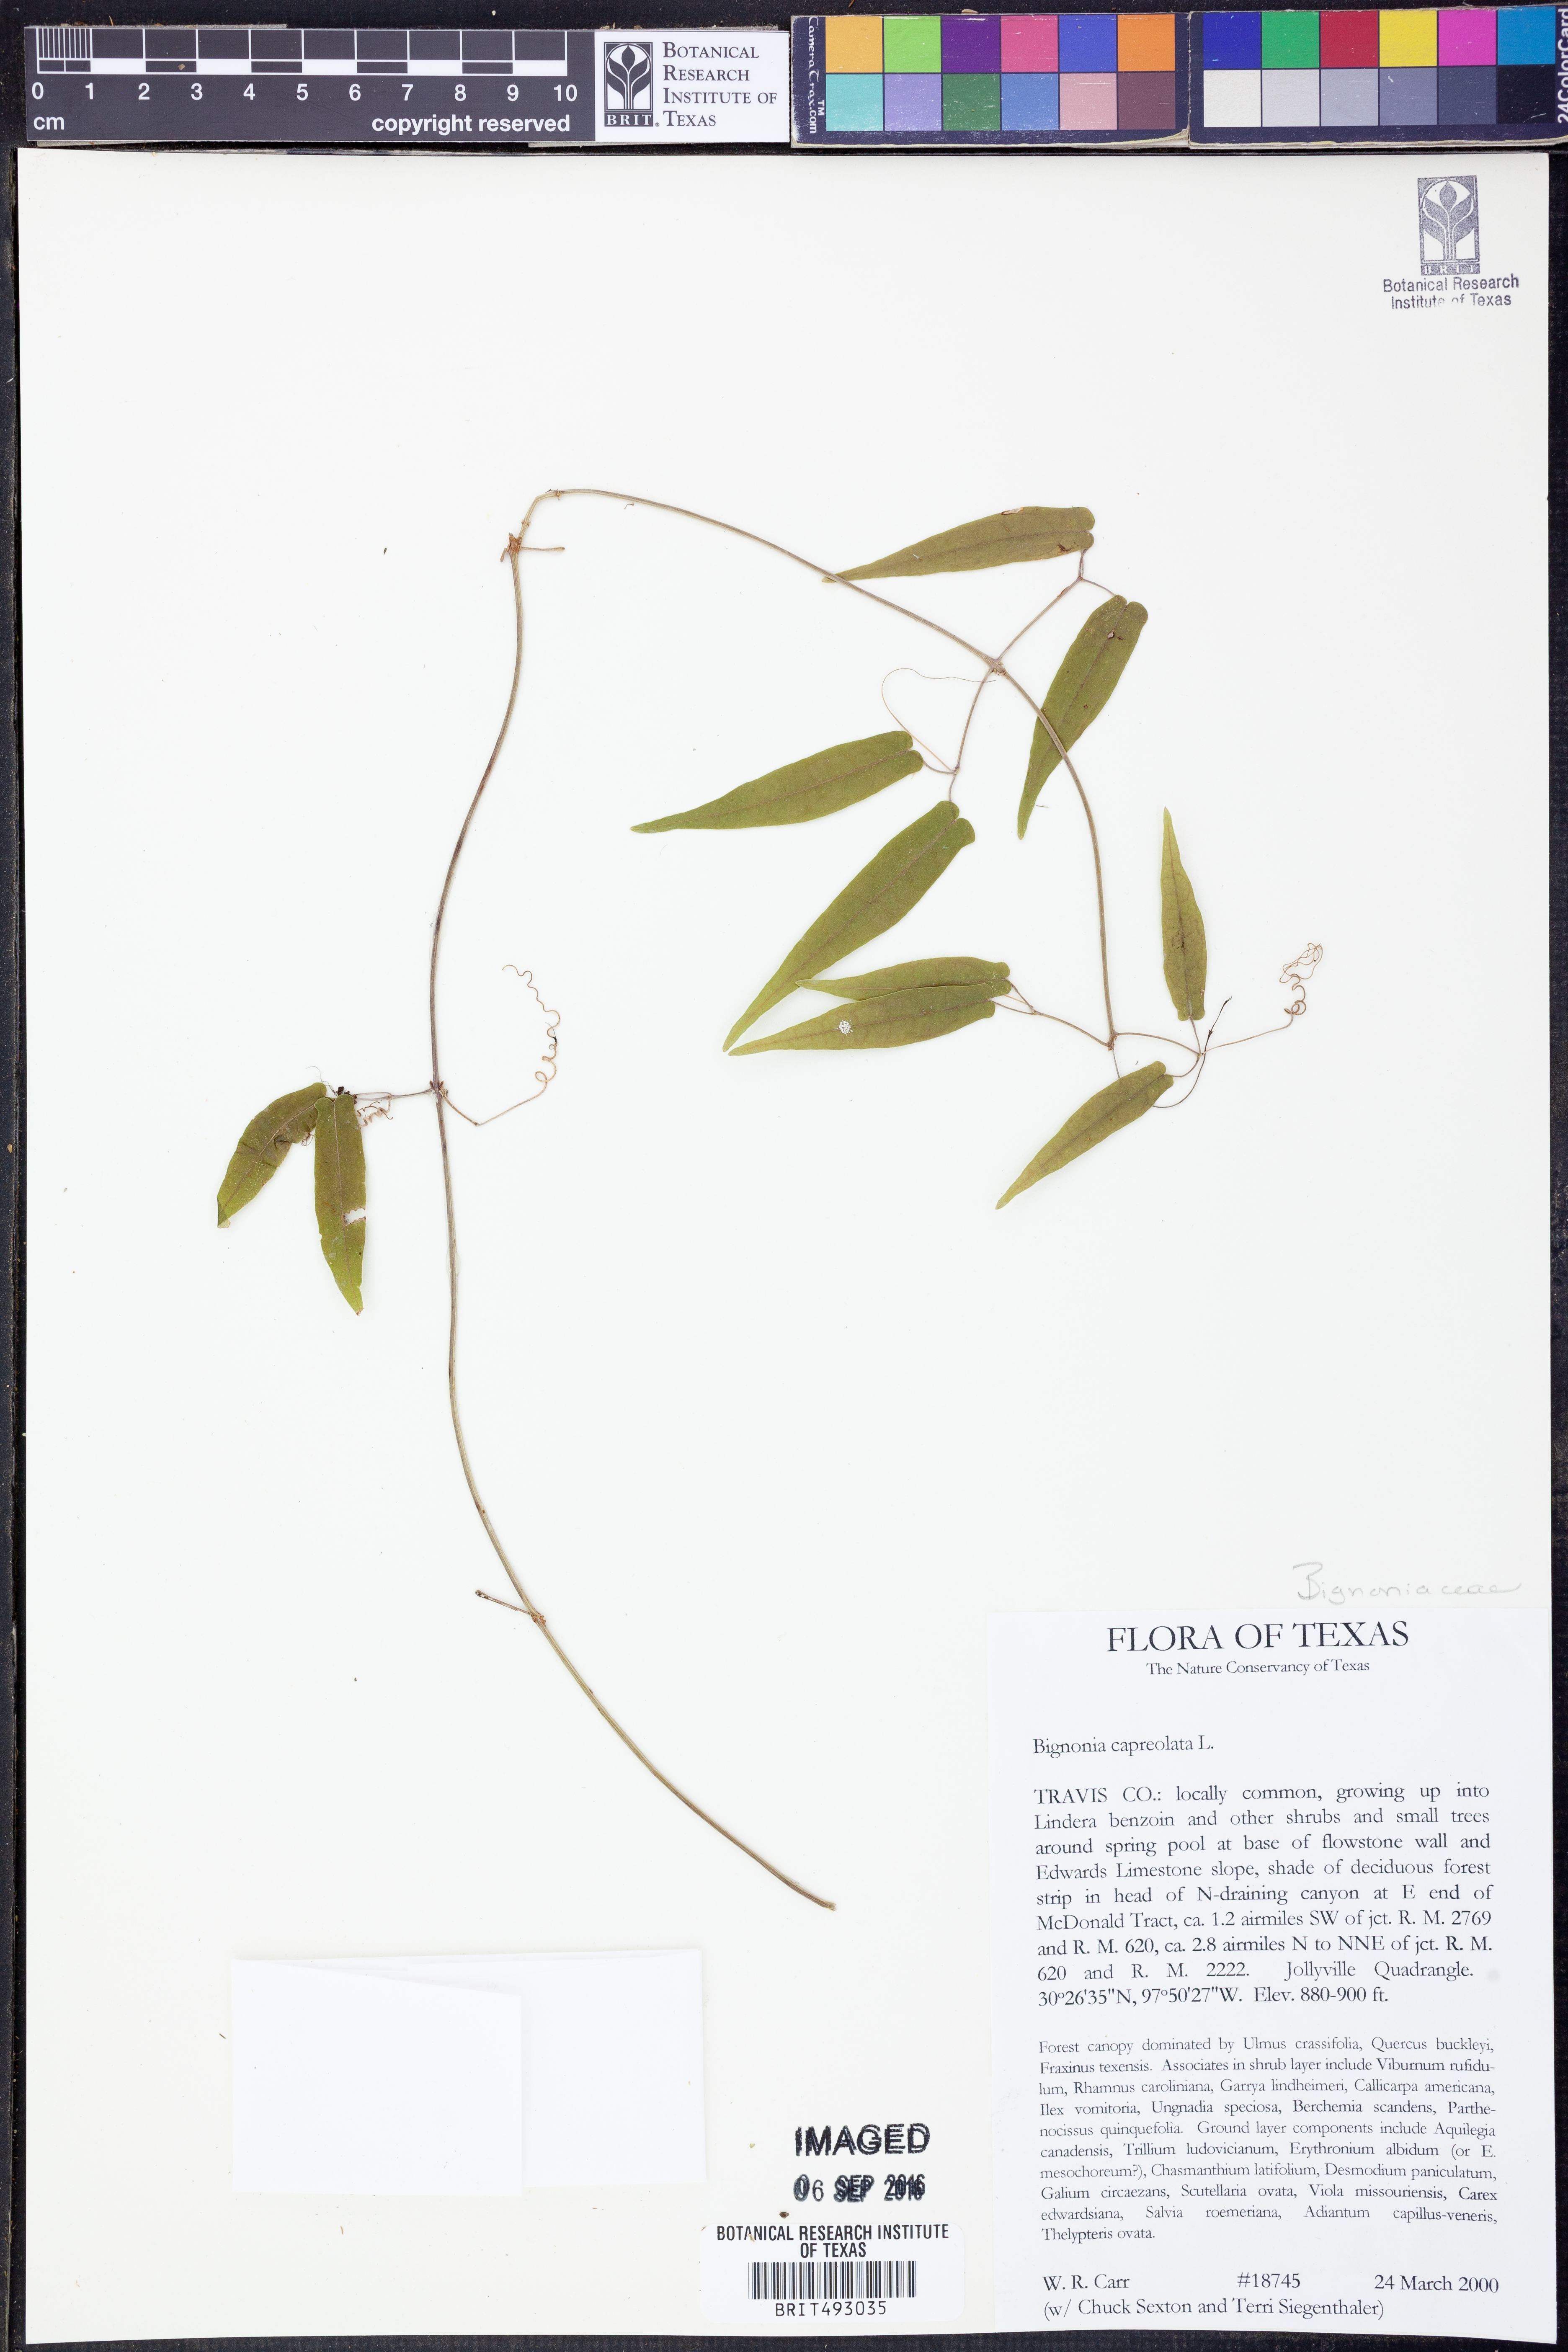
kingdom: Plantae
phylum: Tracheophyta
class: Magnoliopsida
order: Lamiales
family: Bignoniaceae
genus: Bignonia
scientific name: Bignonia capreolata
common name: Crossvine
